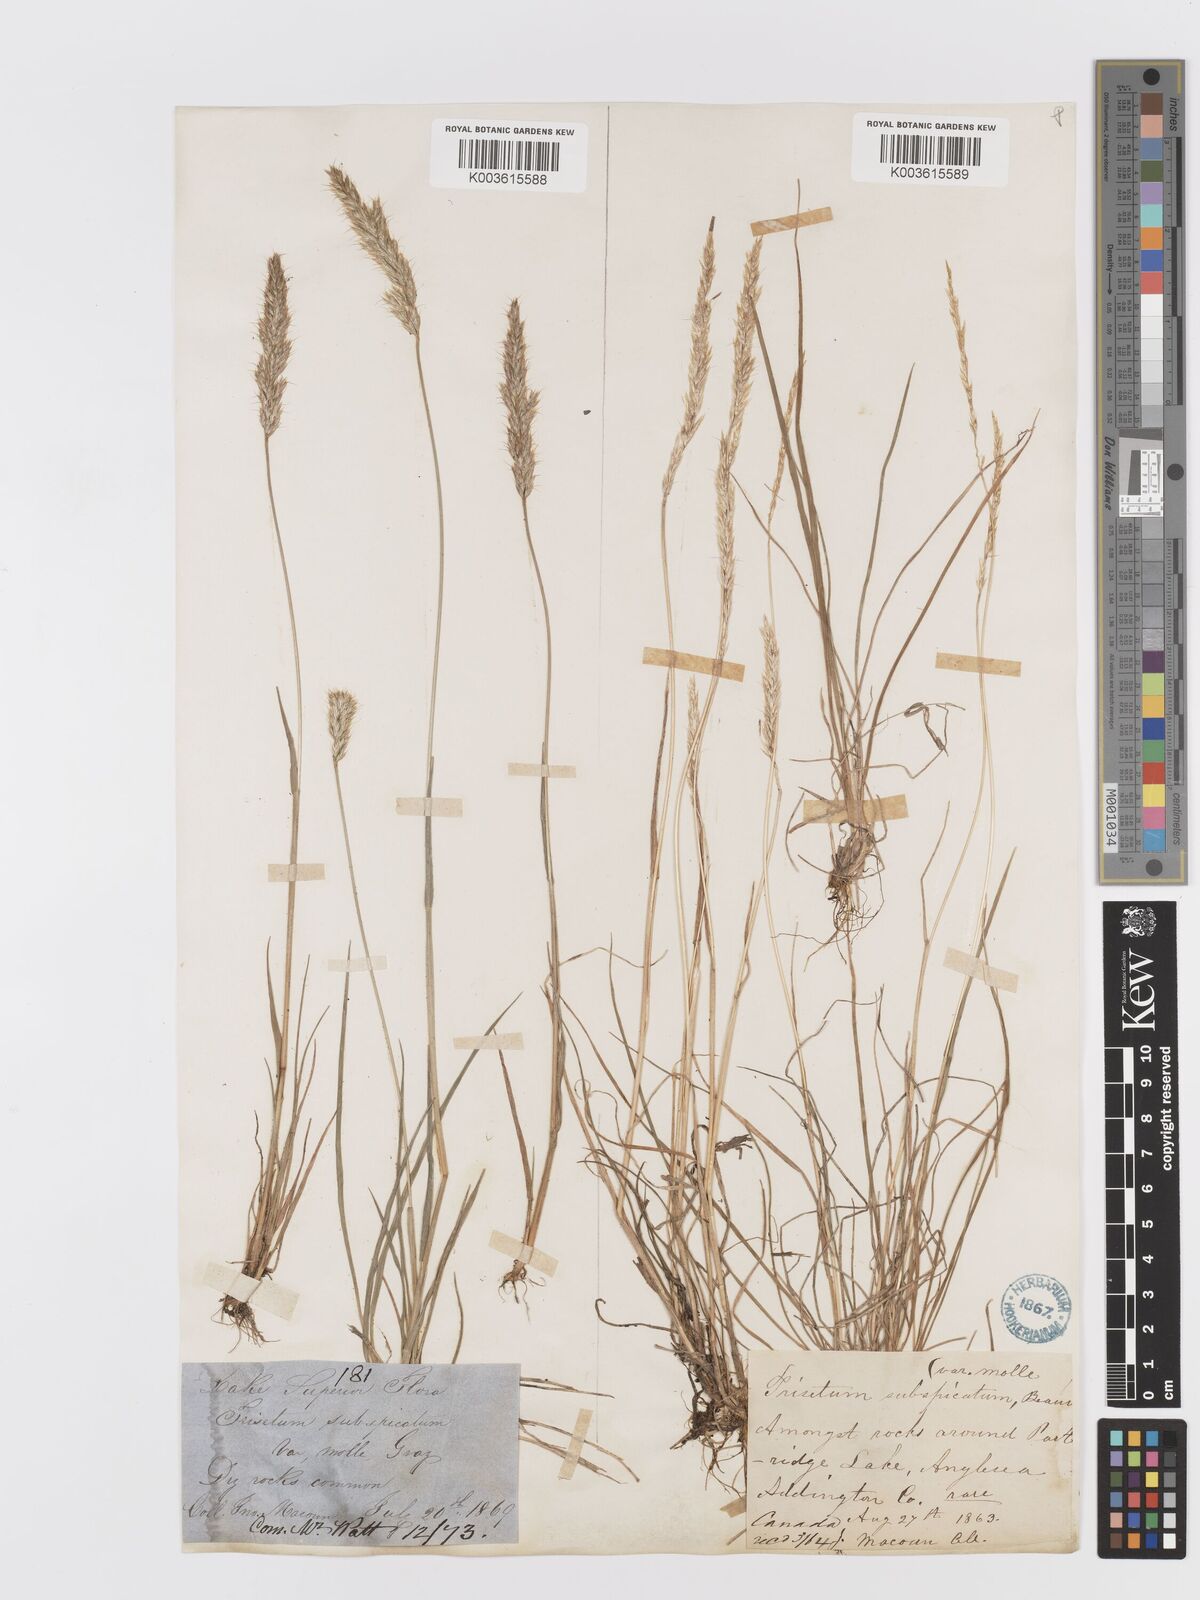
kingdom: Plantae
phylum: Tracheophyta
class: Liliopsida
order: Poales
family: Poaceae
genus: Koeleria
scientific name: Koeleria spicata
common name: Mountain trisetum
